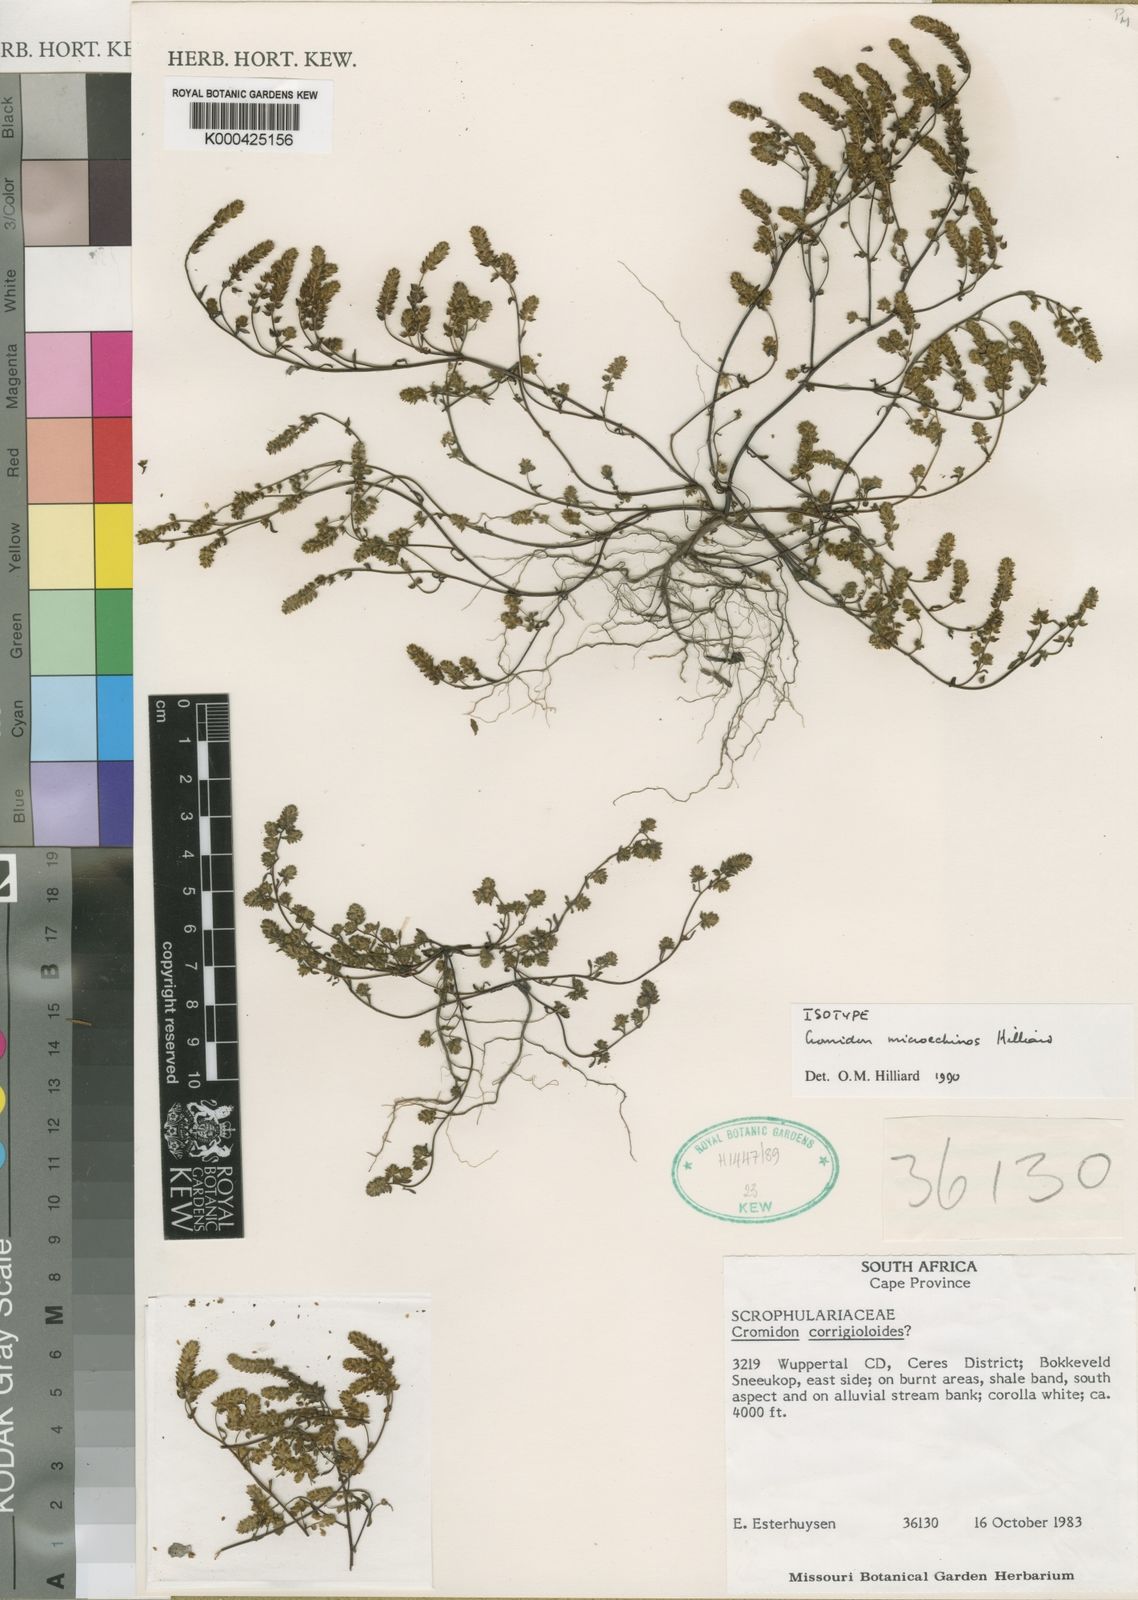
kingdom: Plantae
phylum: Tracheophyta
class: Magnoliopsida
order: Lamiales
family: Scrophulariaceae
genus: Cromidon
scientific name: Cromidon microechinos
